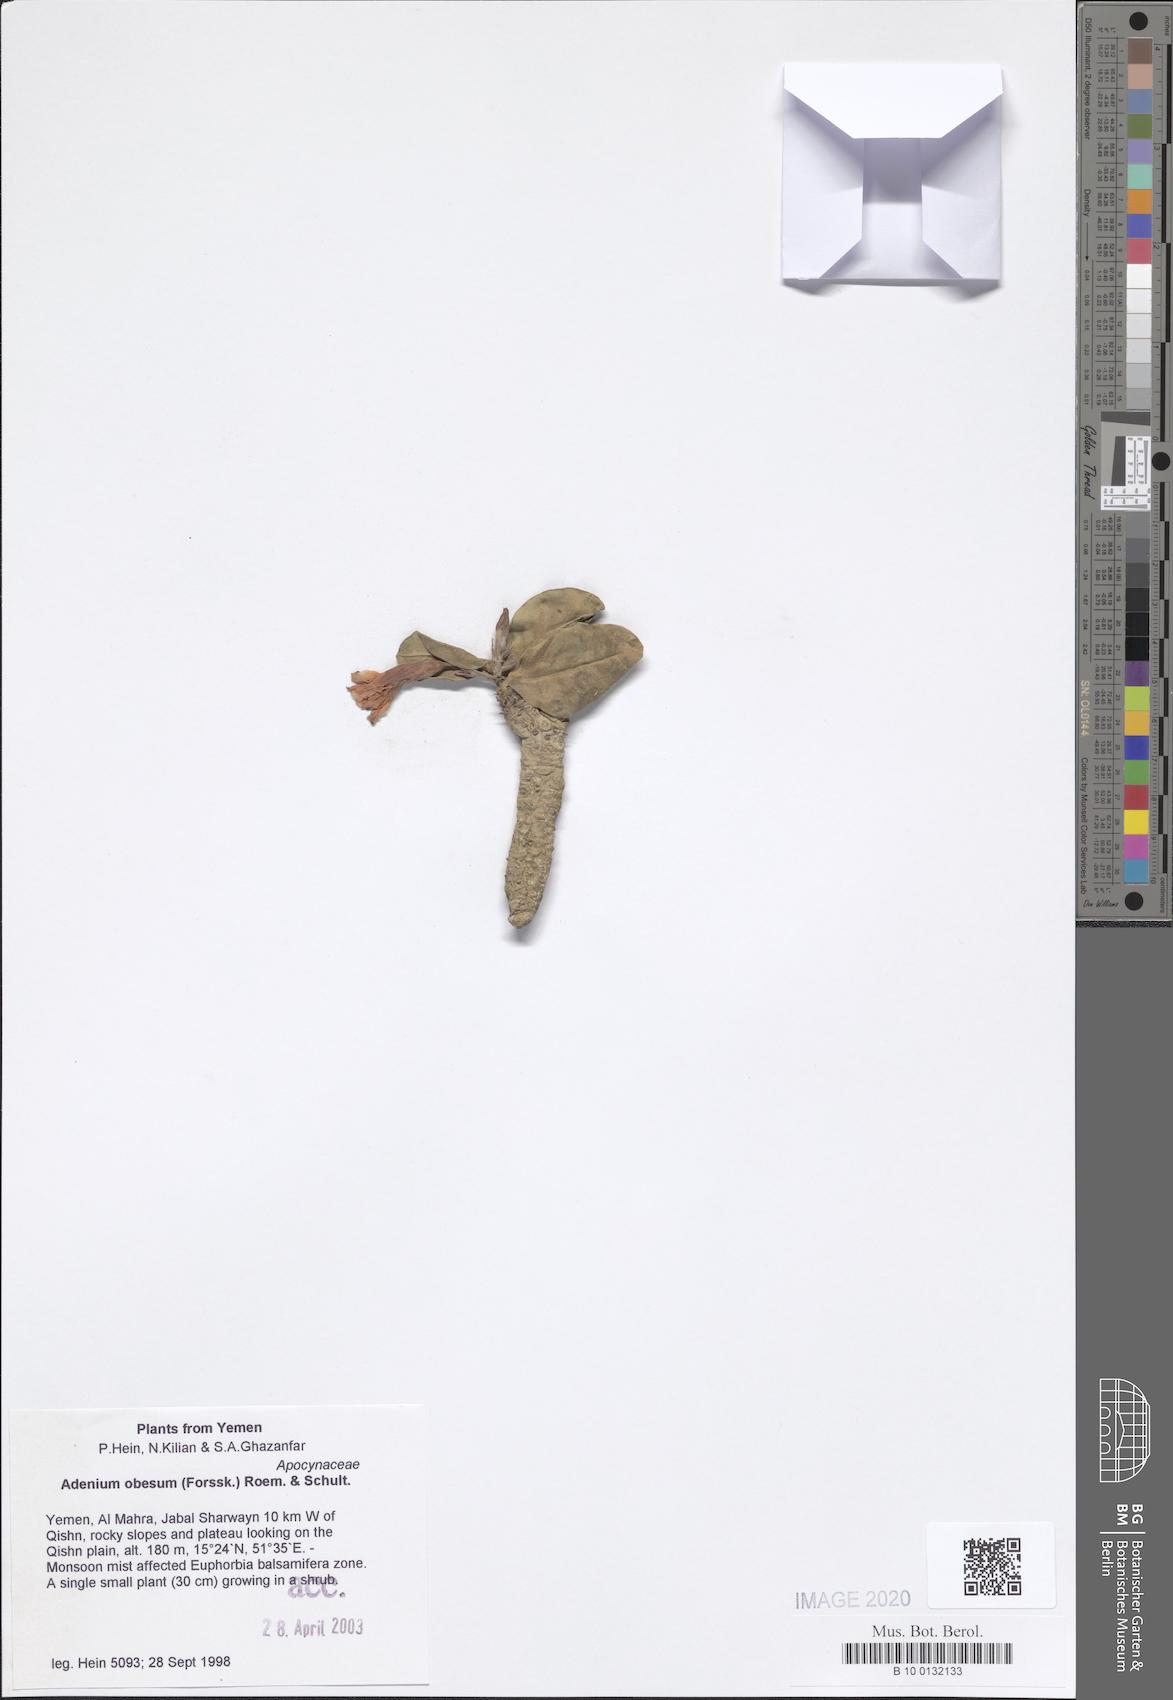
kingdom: Plantae
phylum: Tracheophyta
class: Magnoliopsida
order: Gentianales
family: Apocynaceae
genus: Adenium
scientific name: Adenium obesum
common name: Desert-rose
